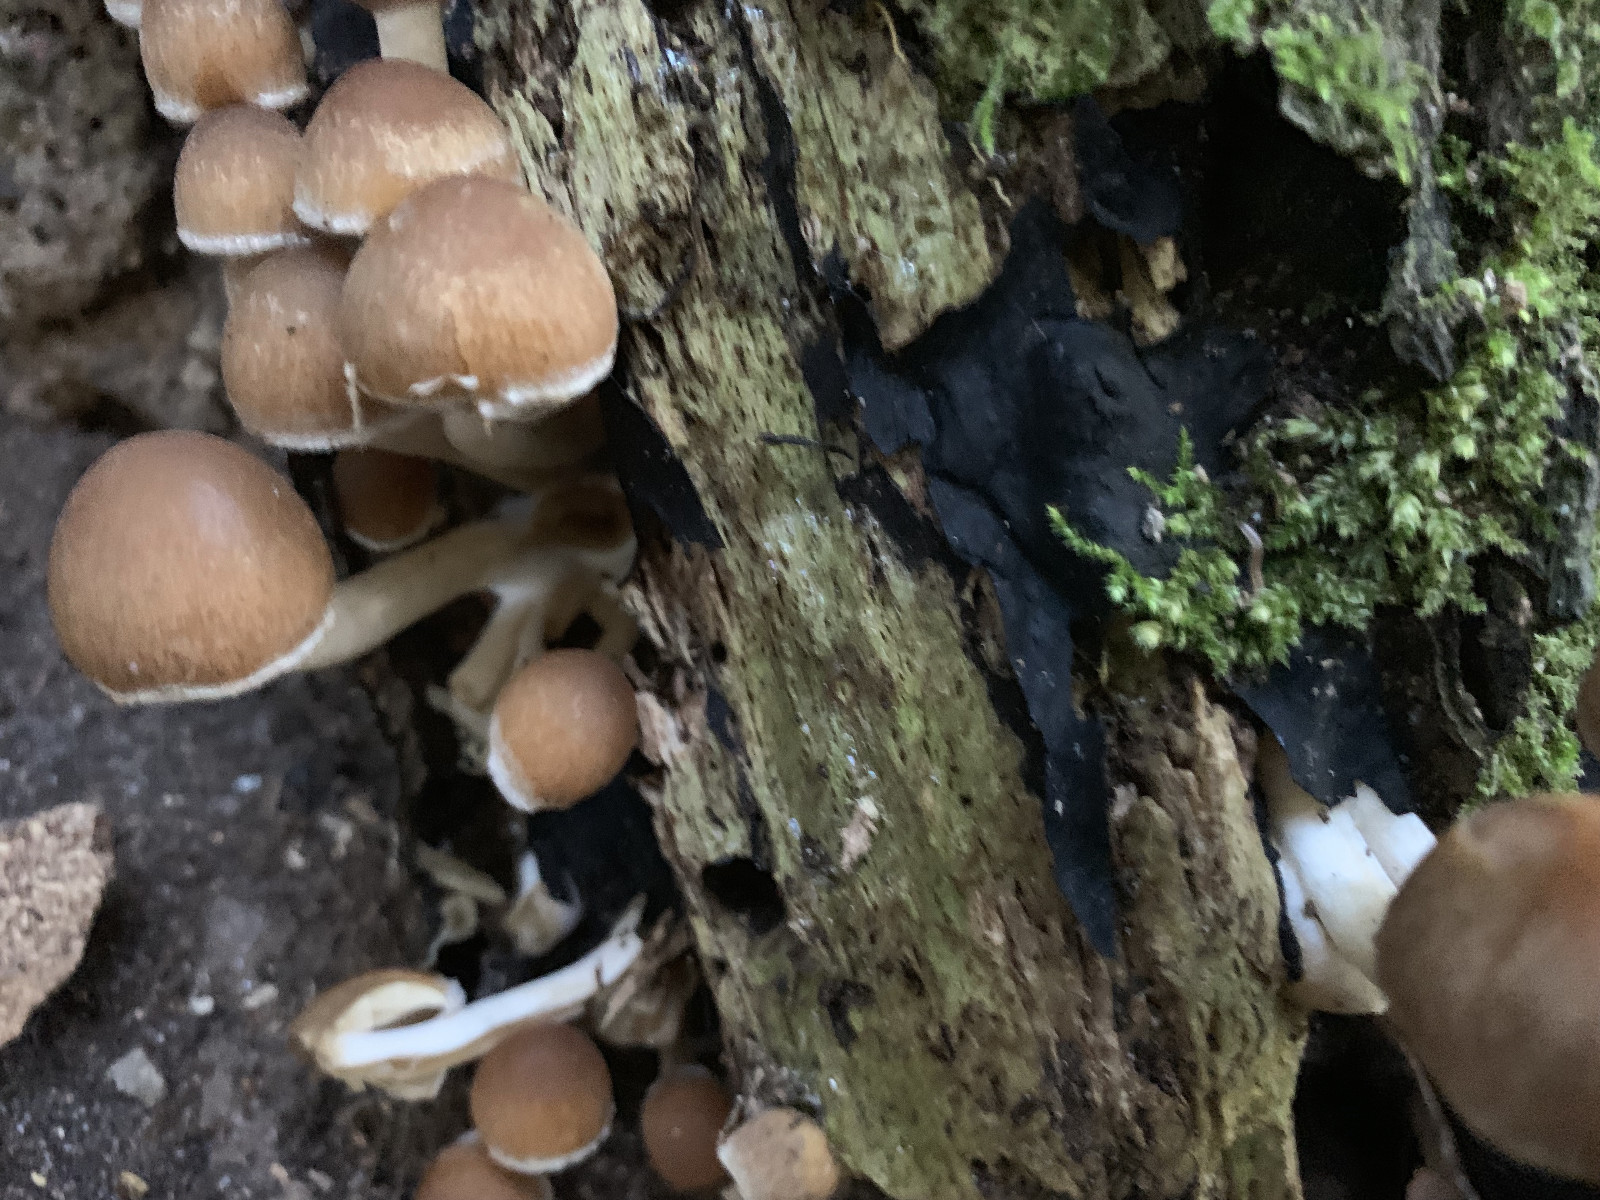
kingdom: Fungi
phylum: Basidiomycota
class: Agaricomycetes
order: Agaricales
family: Psathyrellaceae
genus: Psathyrella
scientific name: Psathyrella piluliformis
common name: lysstokket mørkhat
